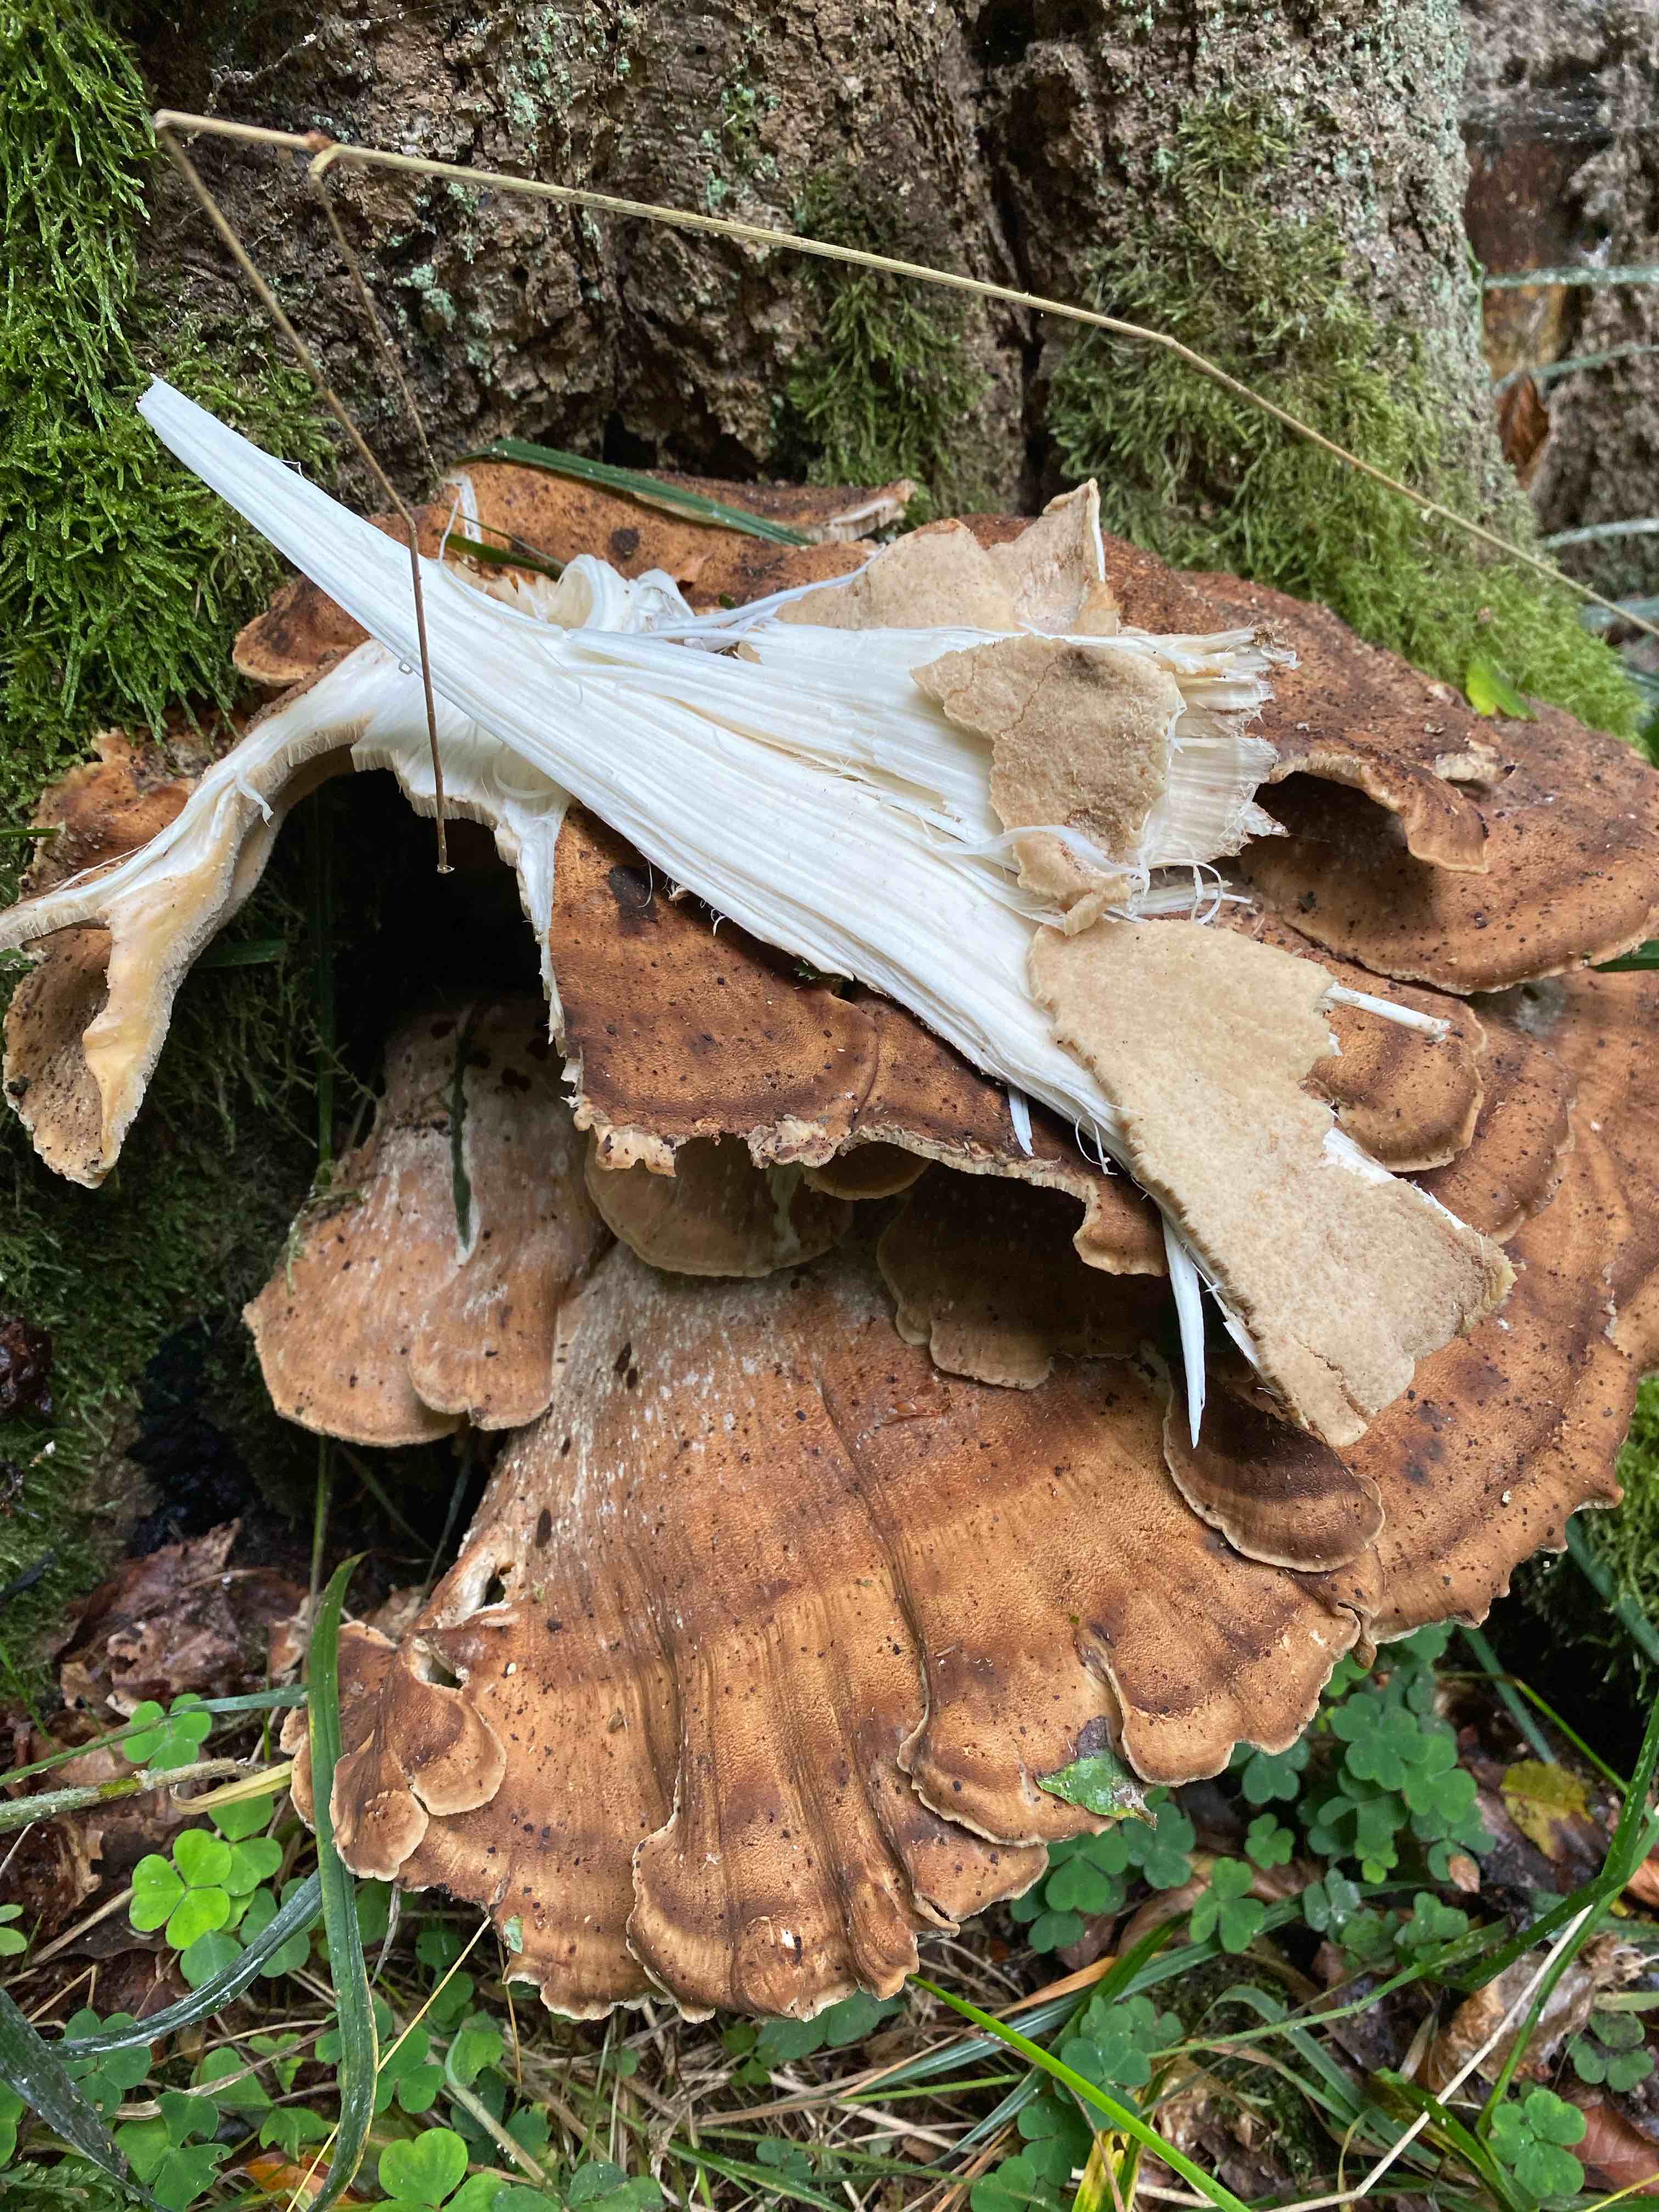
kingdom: Fungi
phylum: Basidiomycota
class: Agaricomycetes
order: Polyporales
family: Meripilaceae
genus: Meripilus
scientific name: Meripilus giganteus
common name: kæmpeporesvamp
